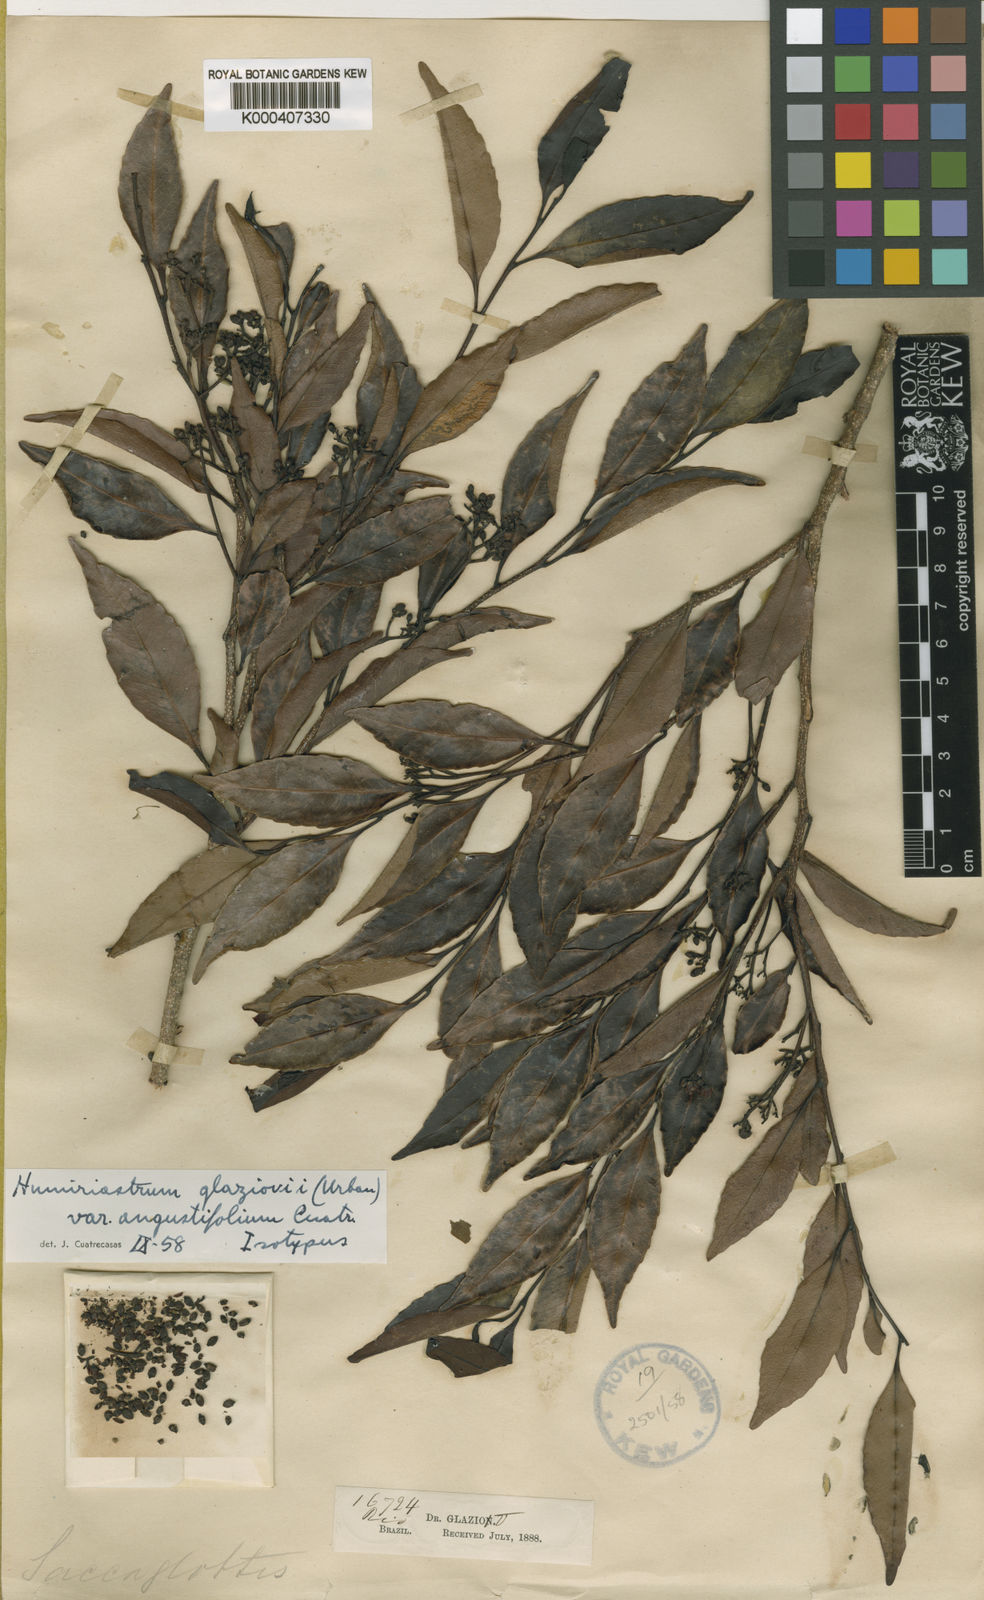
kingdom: Plantae
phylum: Tracheophyta
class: Magnoliopsida
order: Malpighiales
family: Humiriaceae
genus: Humiriastrum
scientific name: Humiriastrum glaziovii
